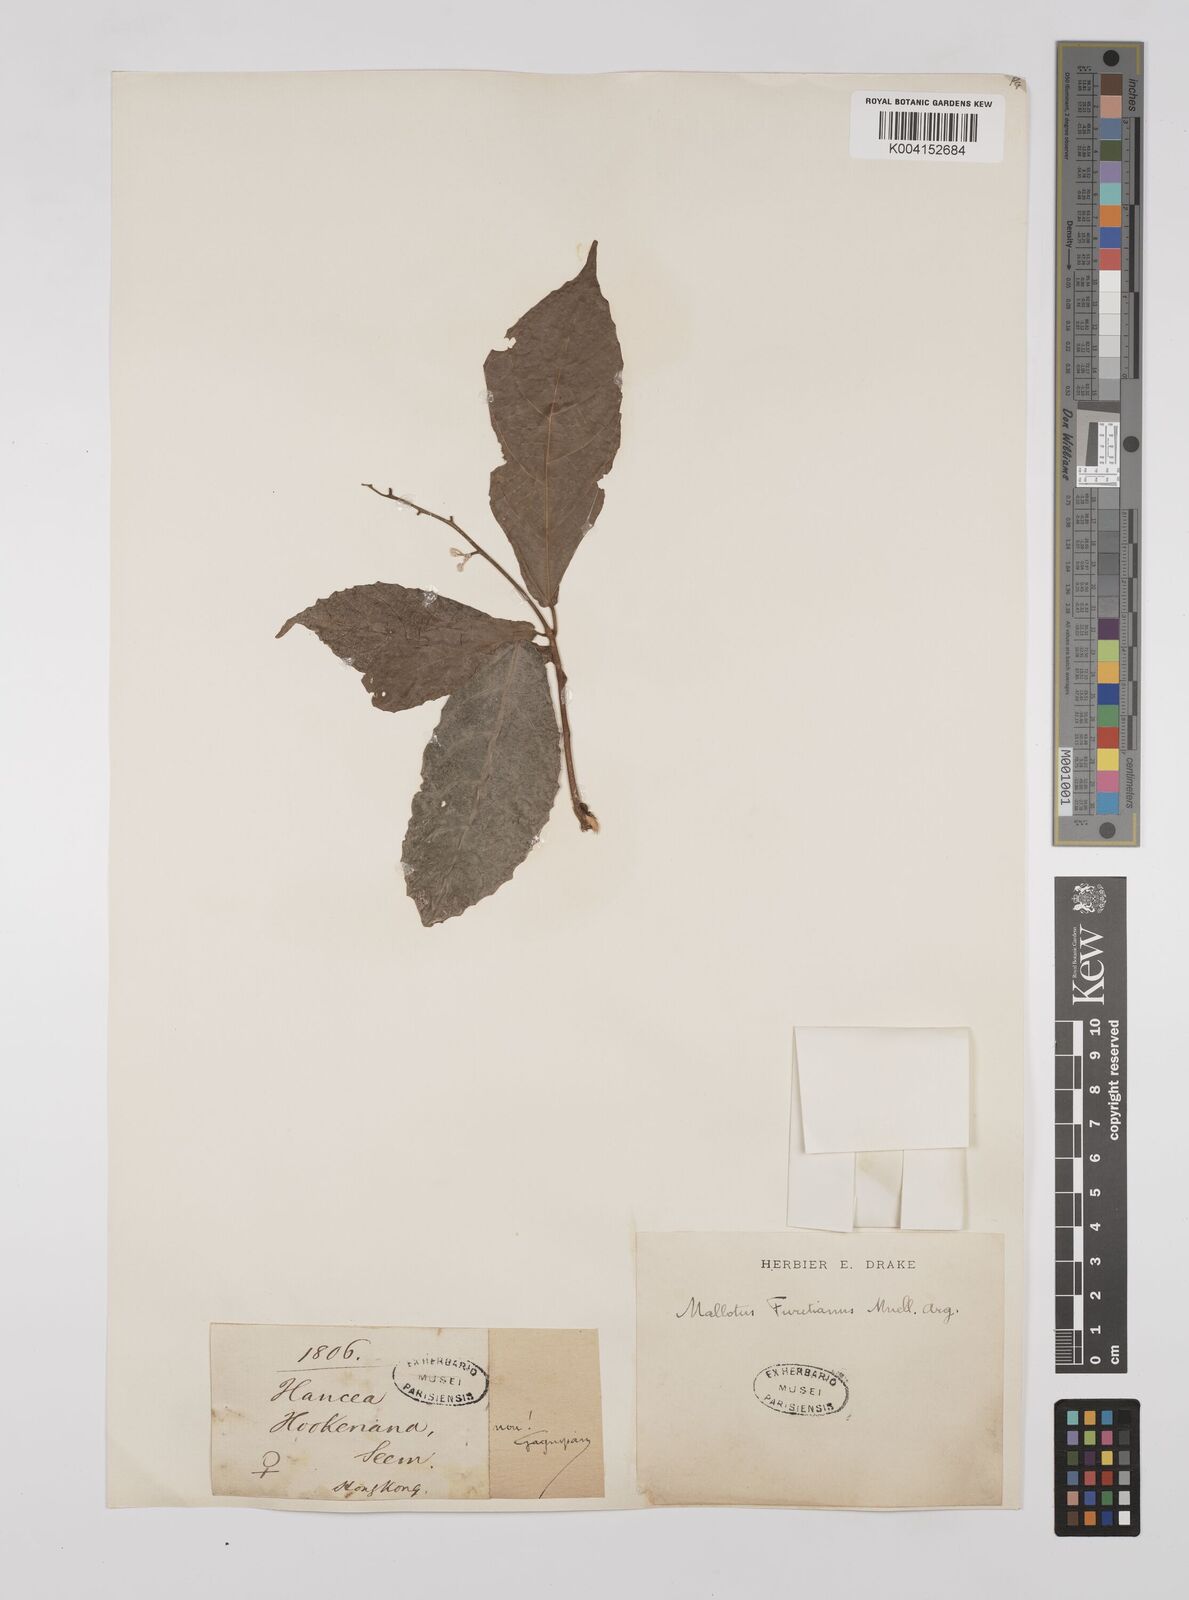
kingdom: Plantae
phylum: Tracheophyta
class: Magnoliopsida
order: Malpighiales
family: Euphorbiaceae
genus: Mallotus
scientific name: Mallotus peltatus
